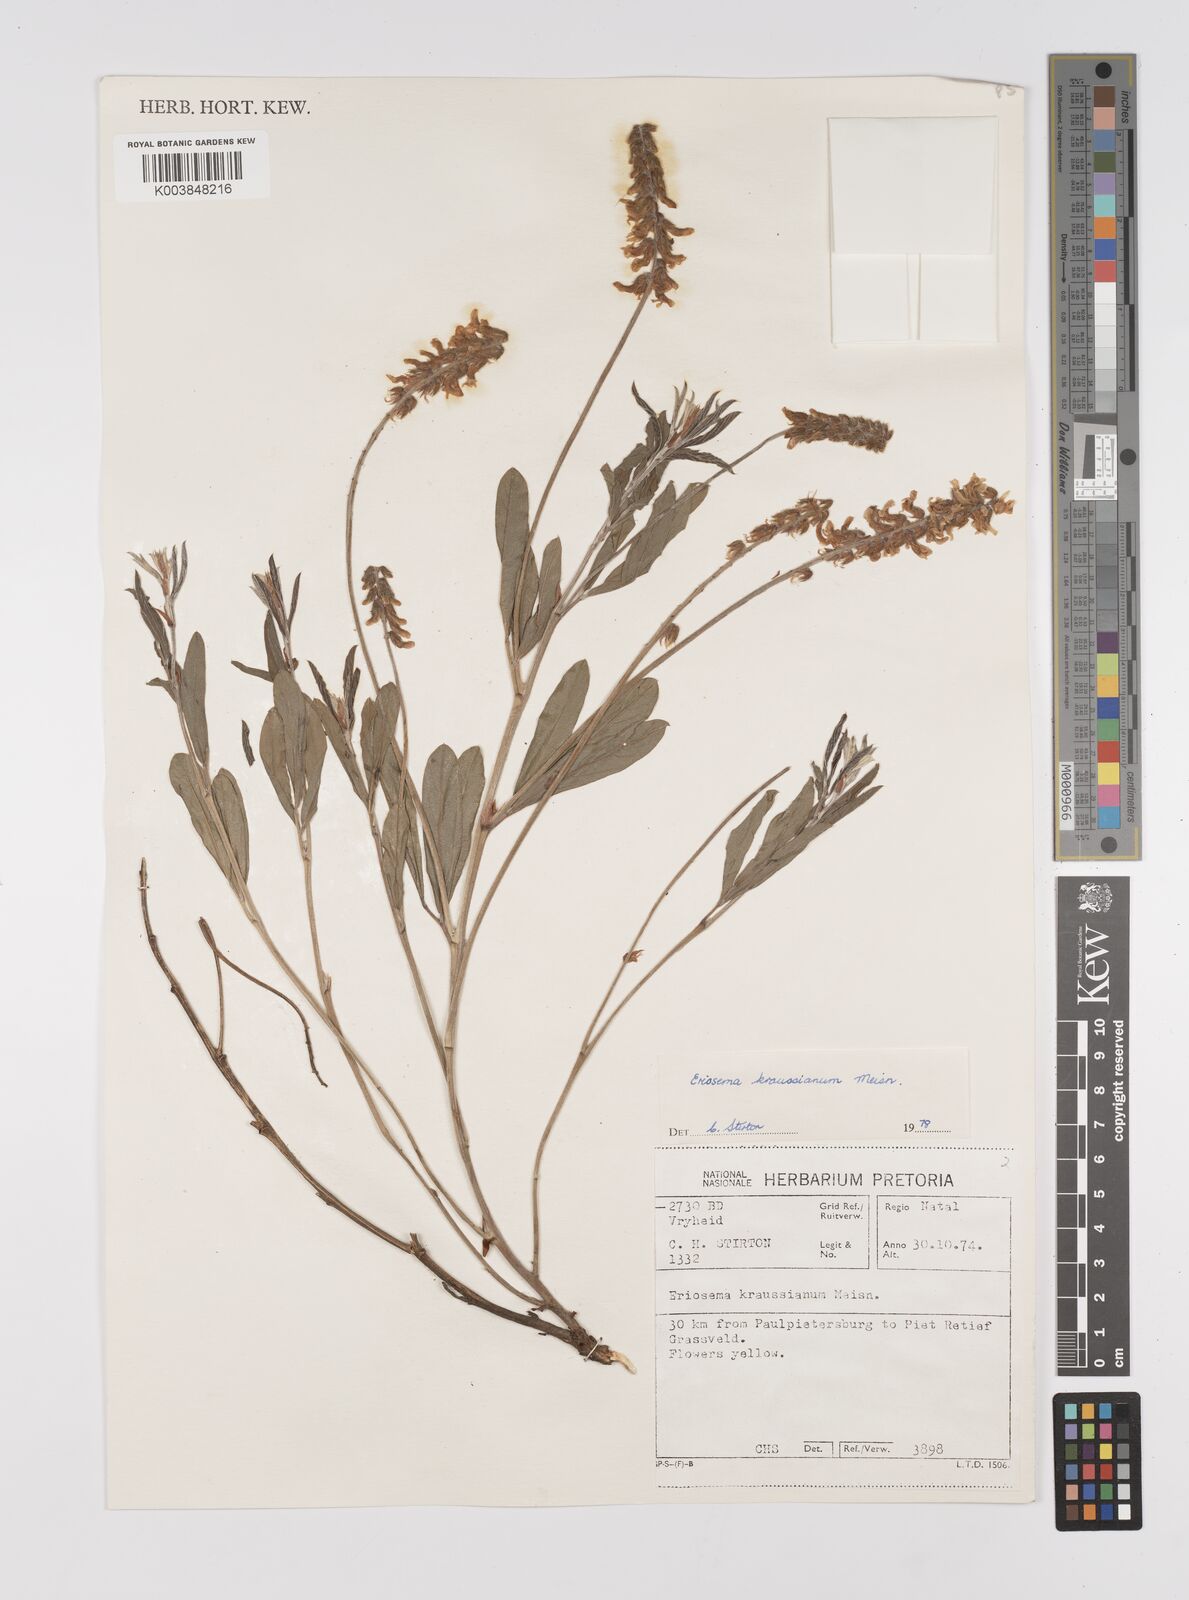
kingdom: Plantae
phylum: Tracheophyta
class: Magnoliopsida
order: Fabales
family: Fabaceae
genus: Eriosema
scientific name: Eriosema kraussianum
